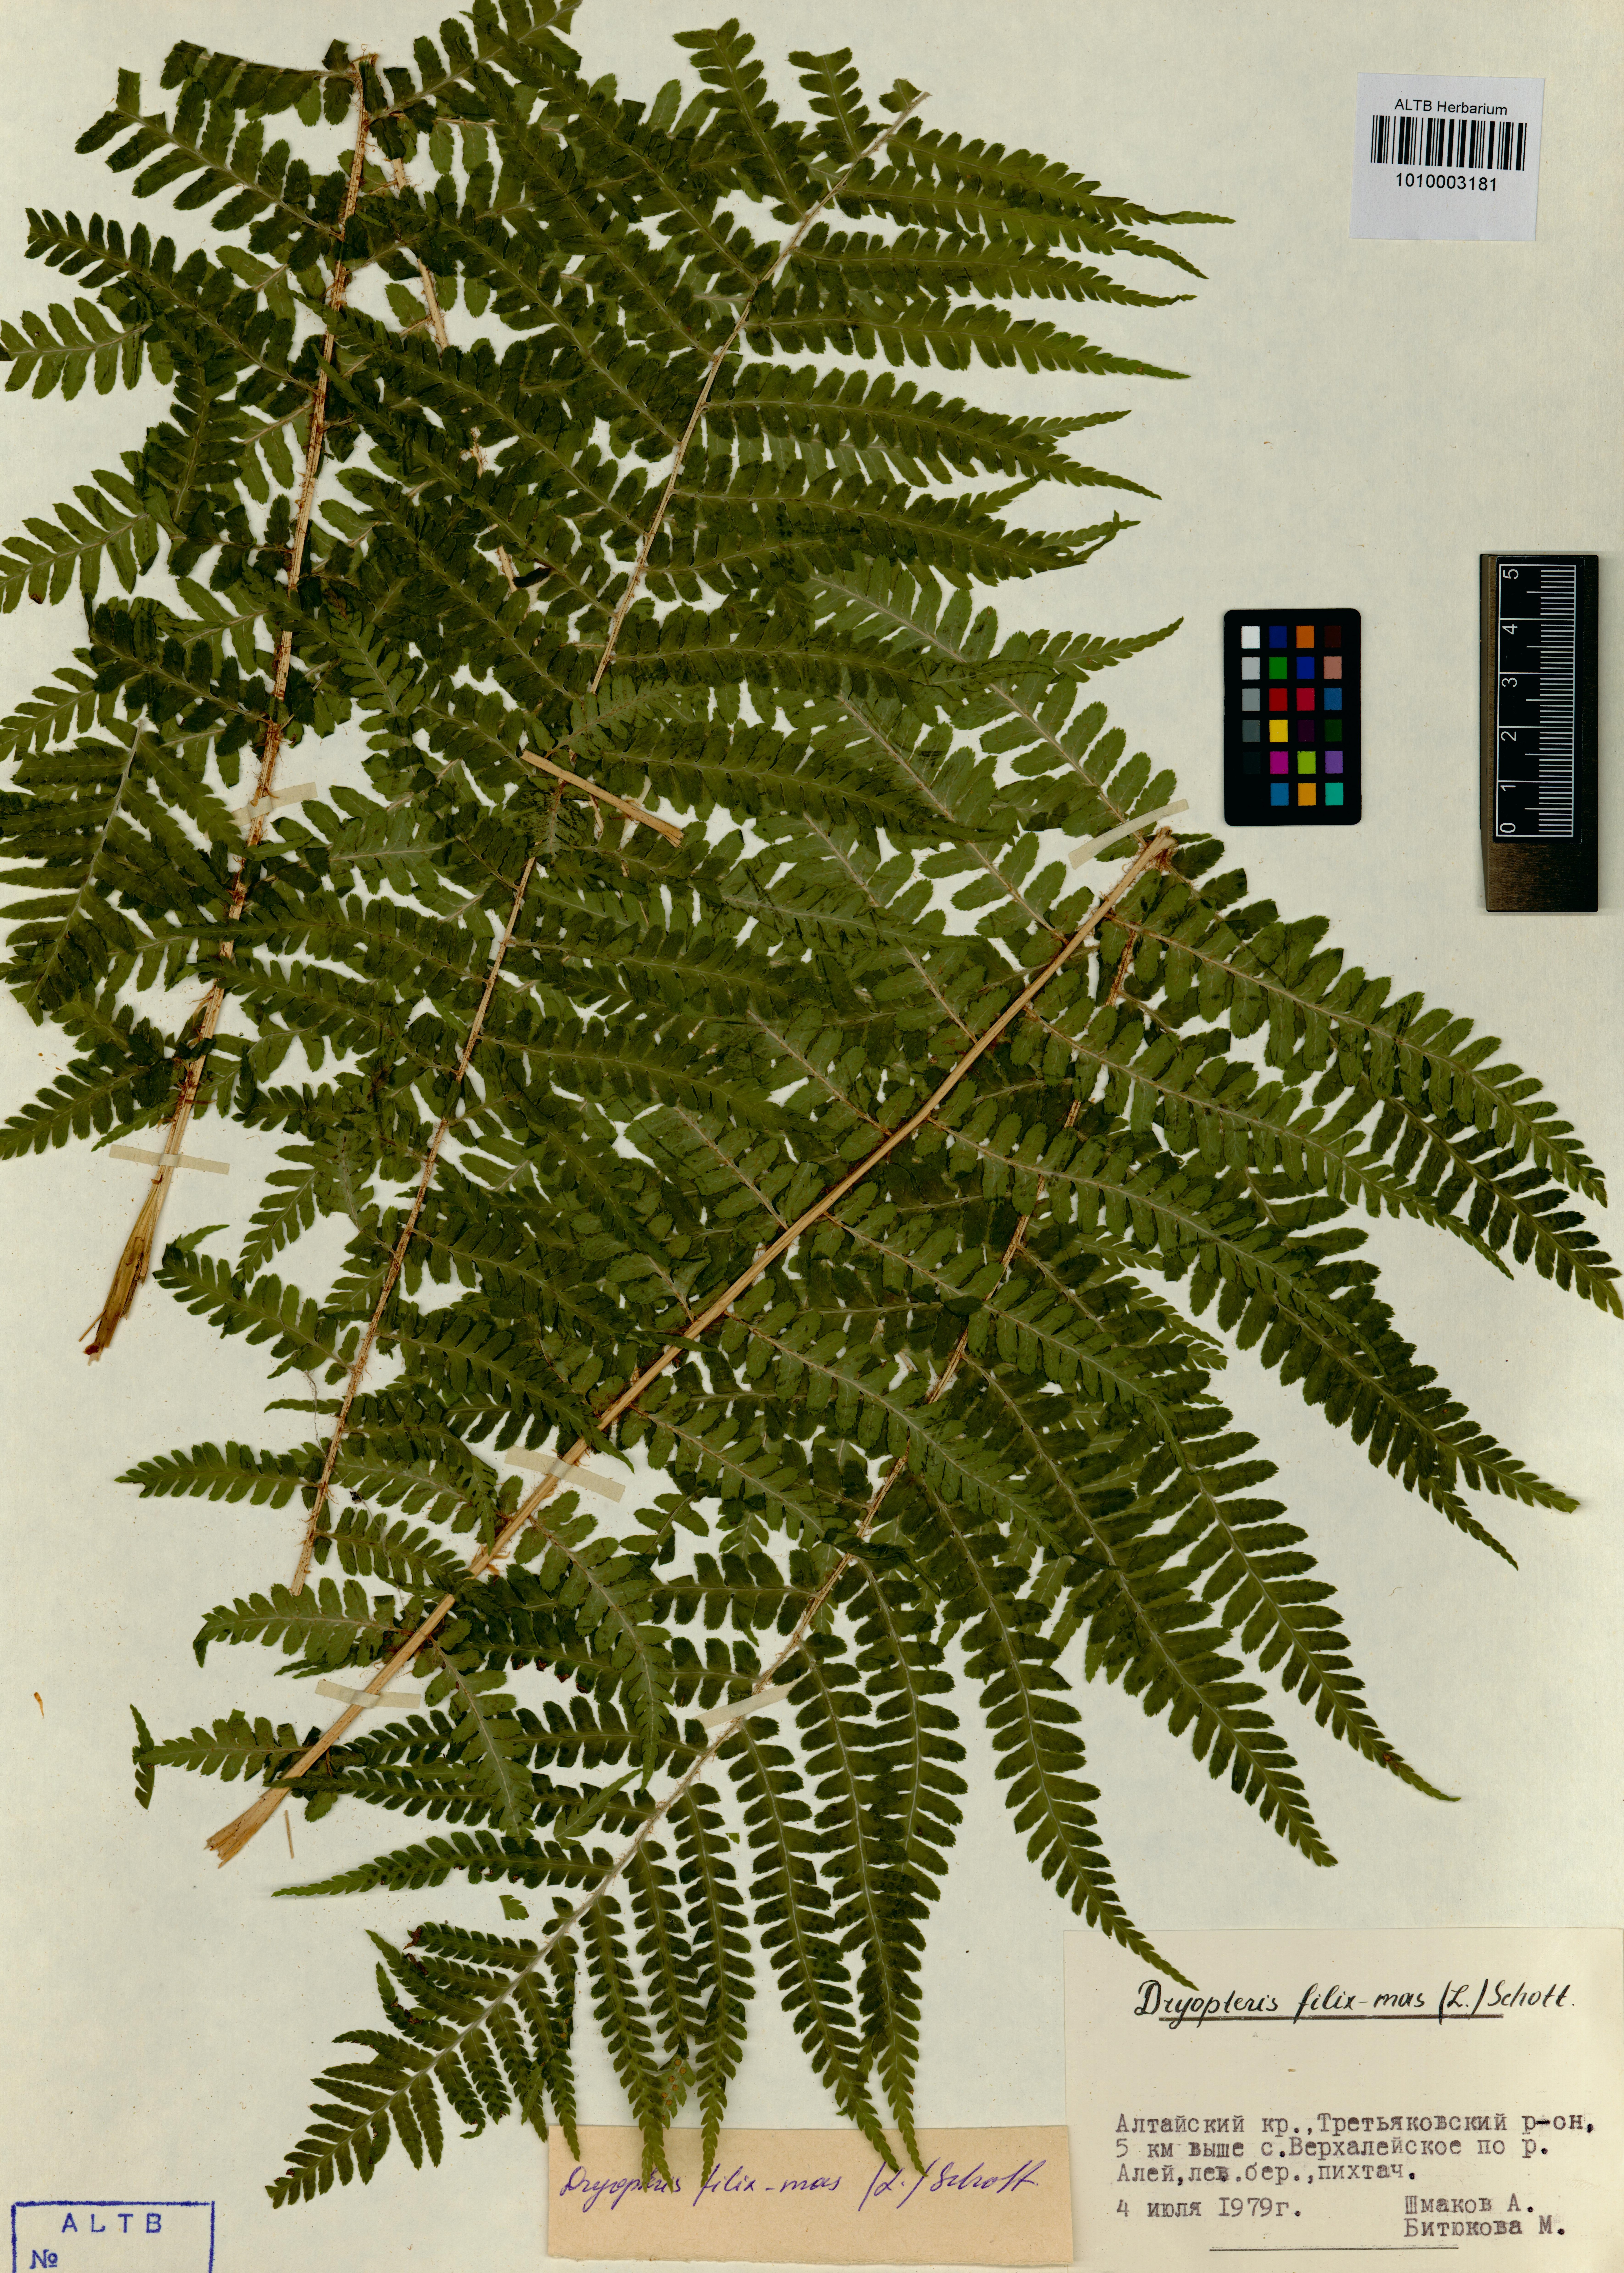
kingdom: Plantae
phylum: Tracheophyta
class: Polypodiopsida
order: Polypodiales
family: Dryopteridaceae
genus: Dryopteris
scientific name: Dryopteris filix-mas
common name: Male fern
